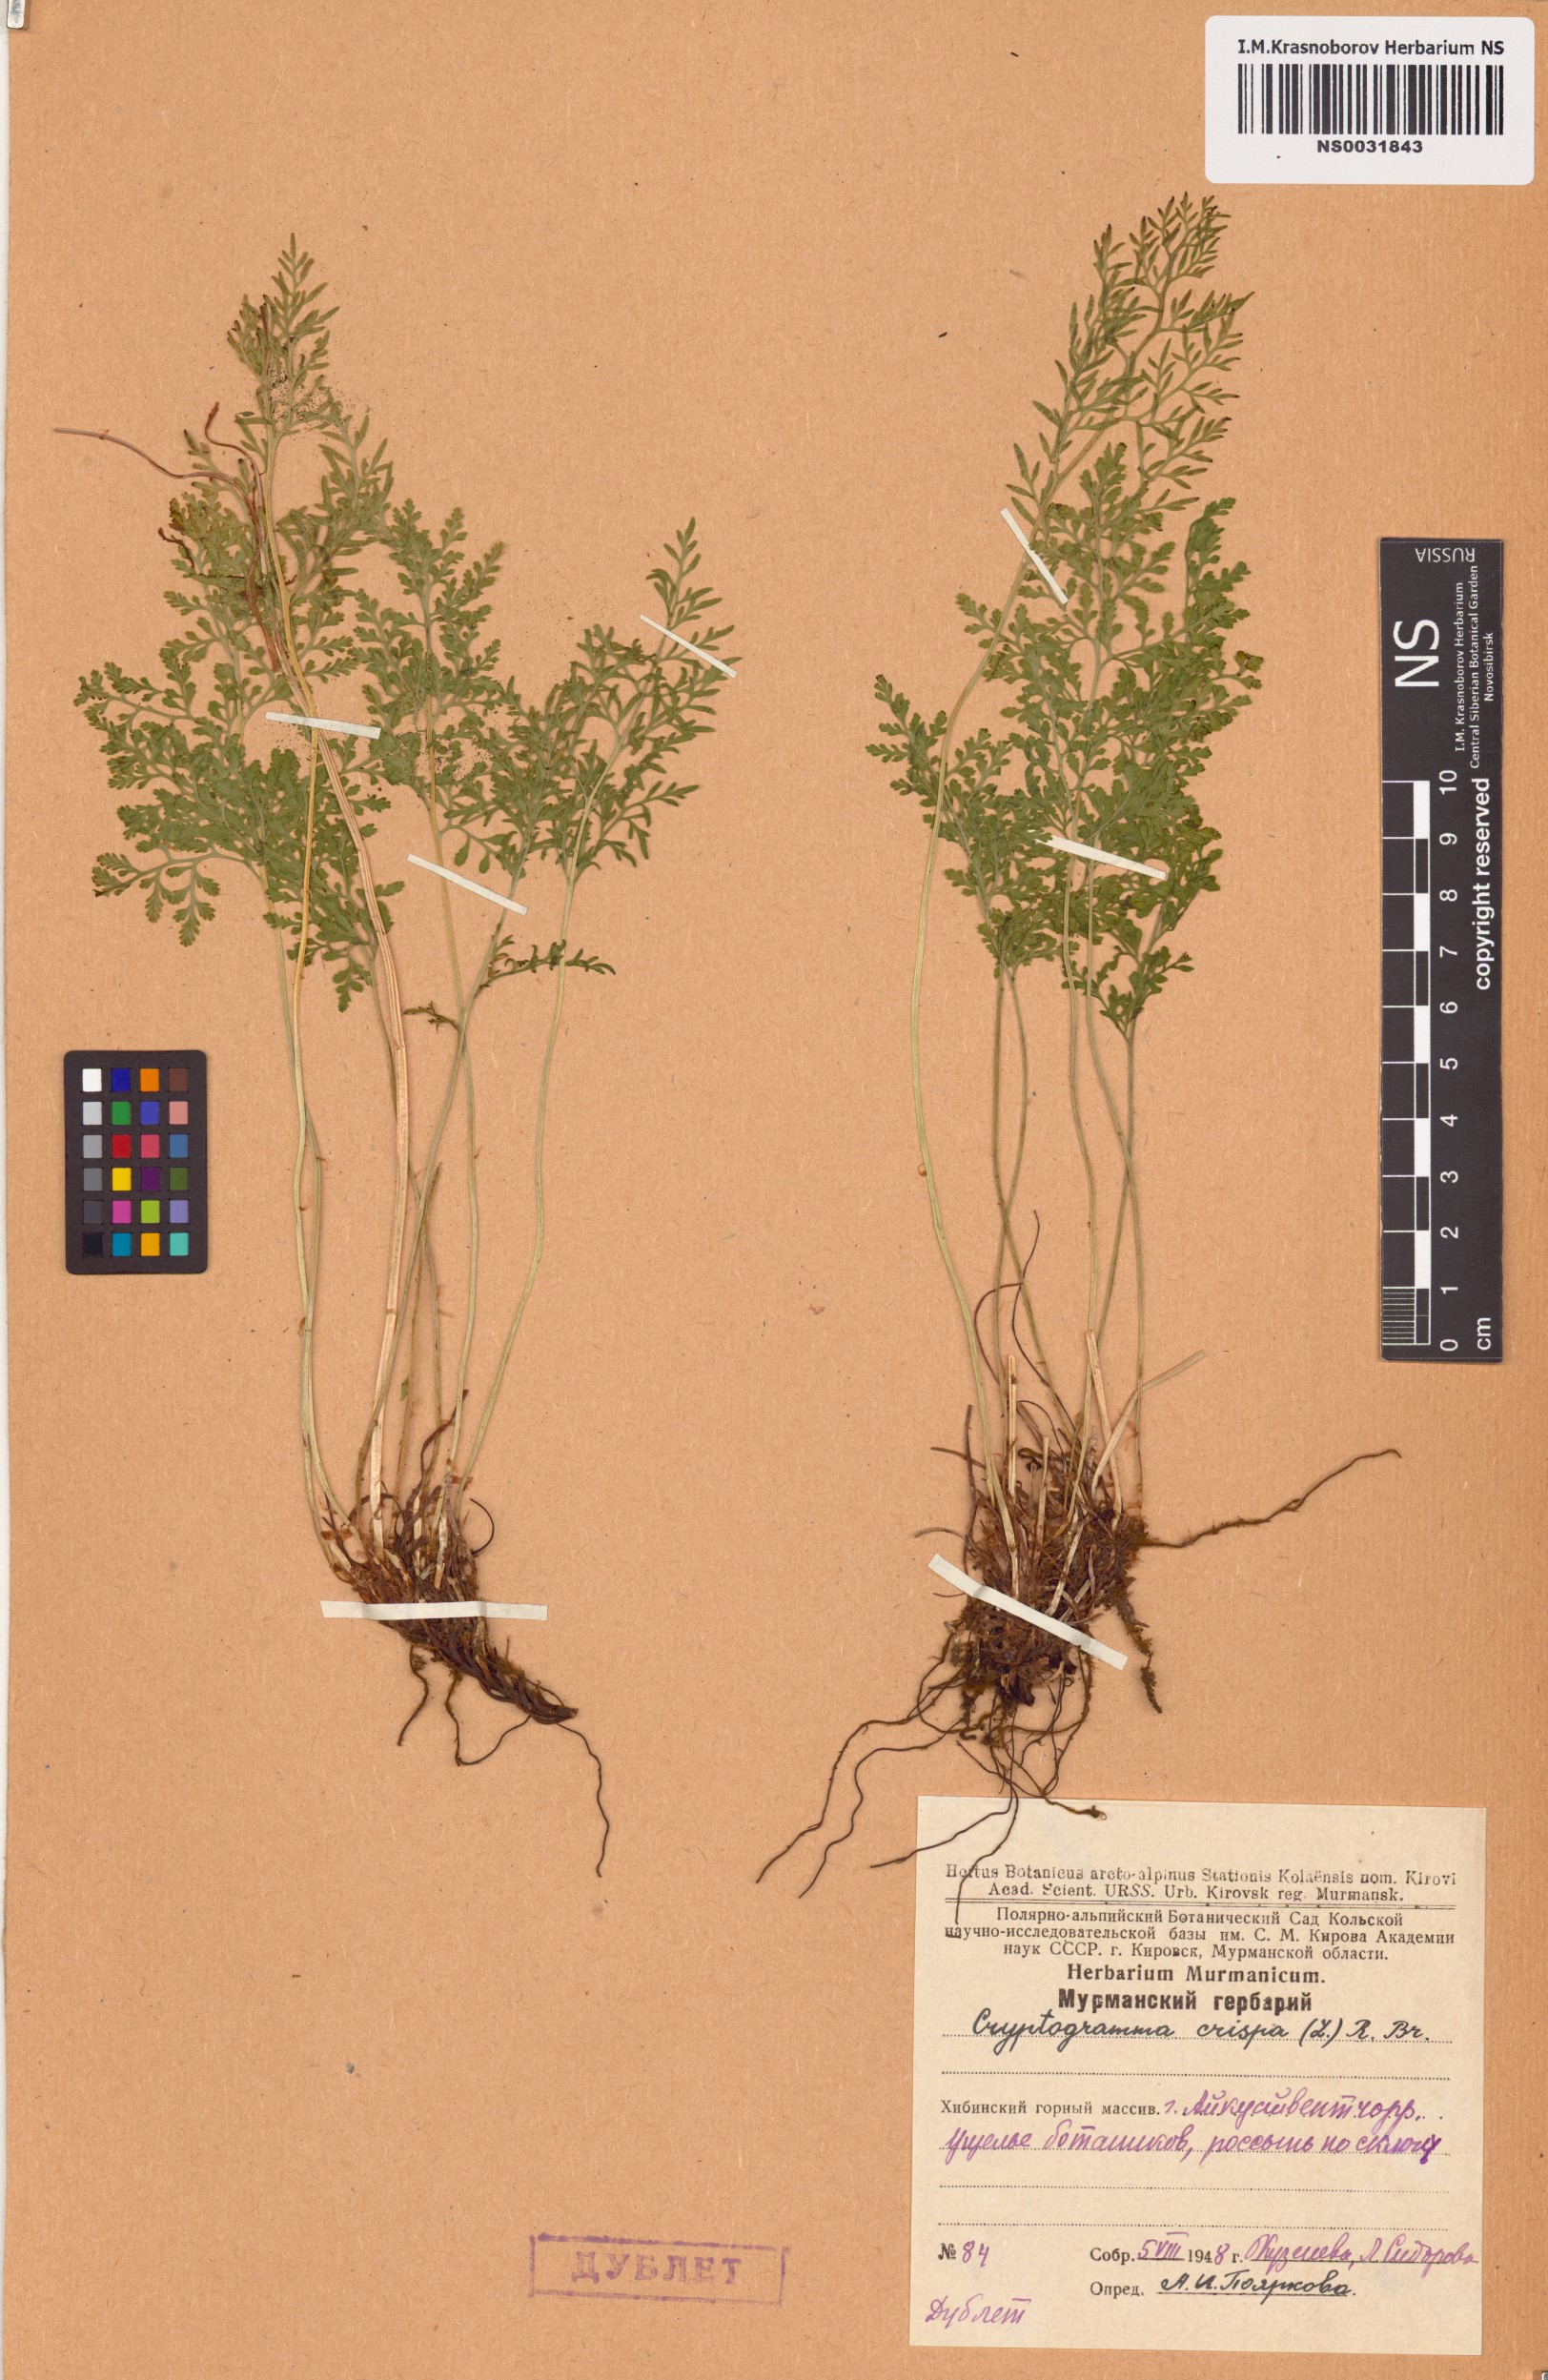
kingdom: Plantae
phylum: Tracheophyta
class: Polypodiopsida
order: Polypodiales
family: Pteridaceae
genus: Cryptogramma
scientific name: Cryptogramma crispa
